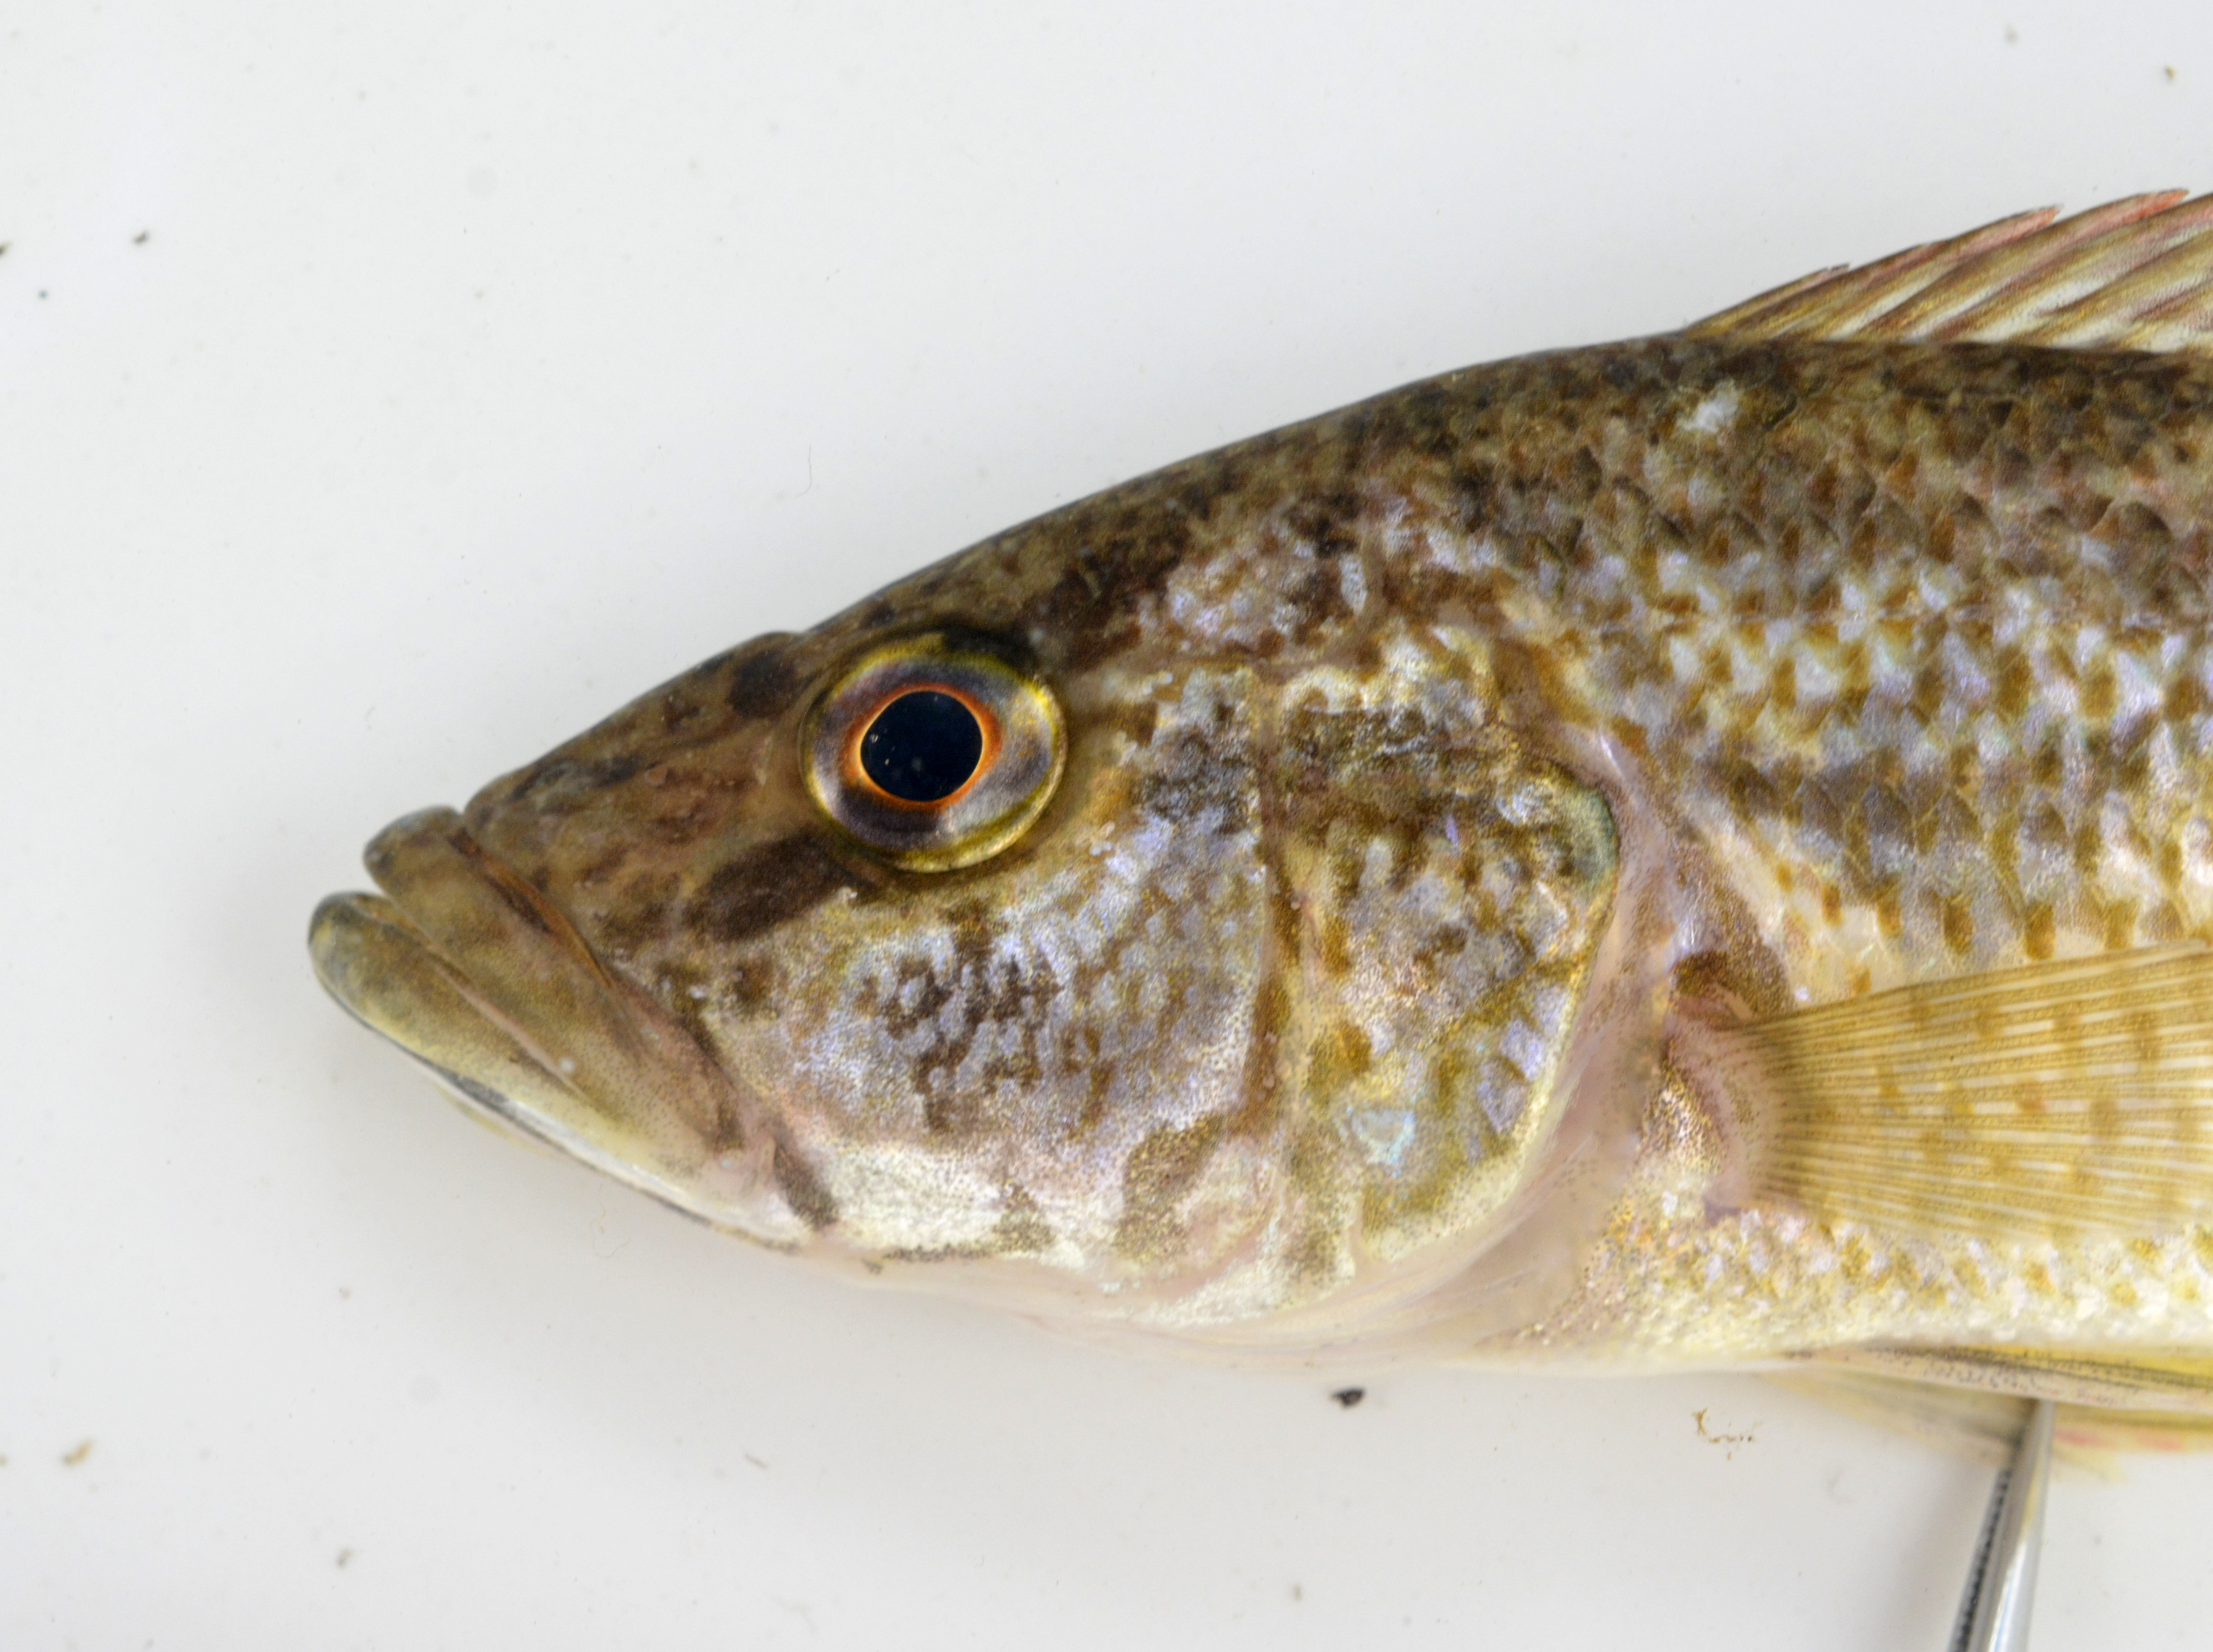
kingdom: Animalia
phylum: Chordata
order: Perciformes
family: Cichlidae
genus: Serranochromis
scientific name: Serranochromis
